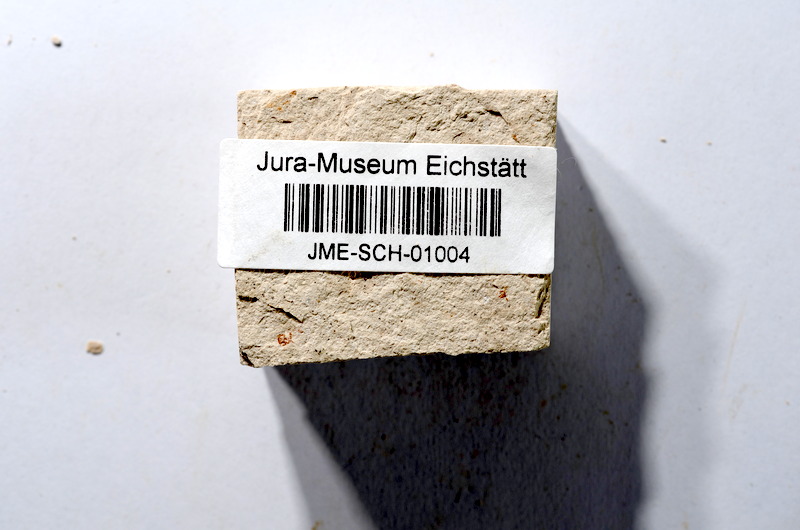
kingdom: Animalia
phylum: Chordata
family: Ascalaboidae
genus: Tharsis
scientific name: Tharsis dubius
